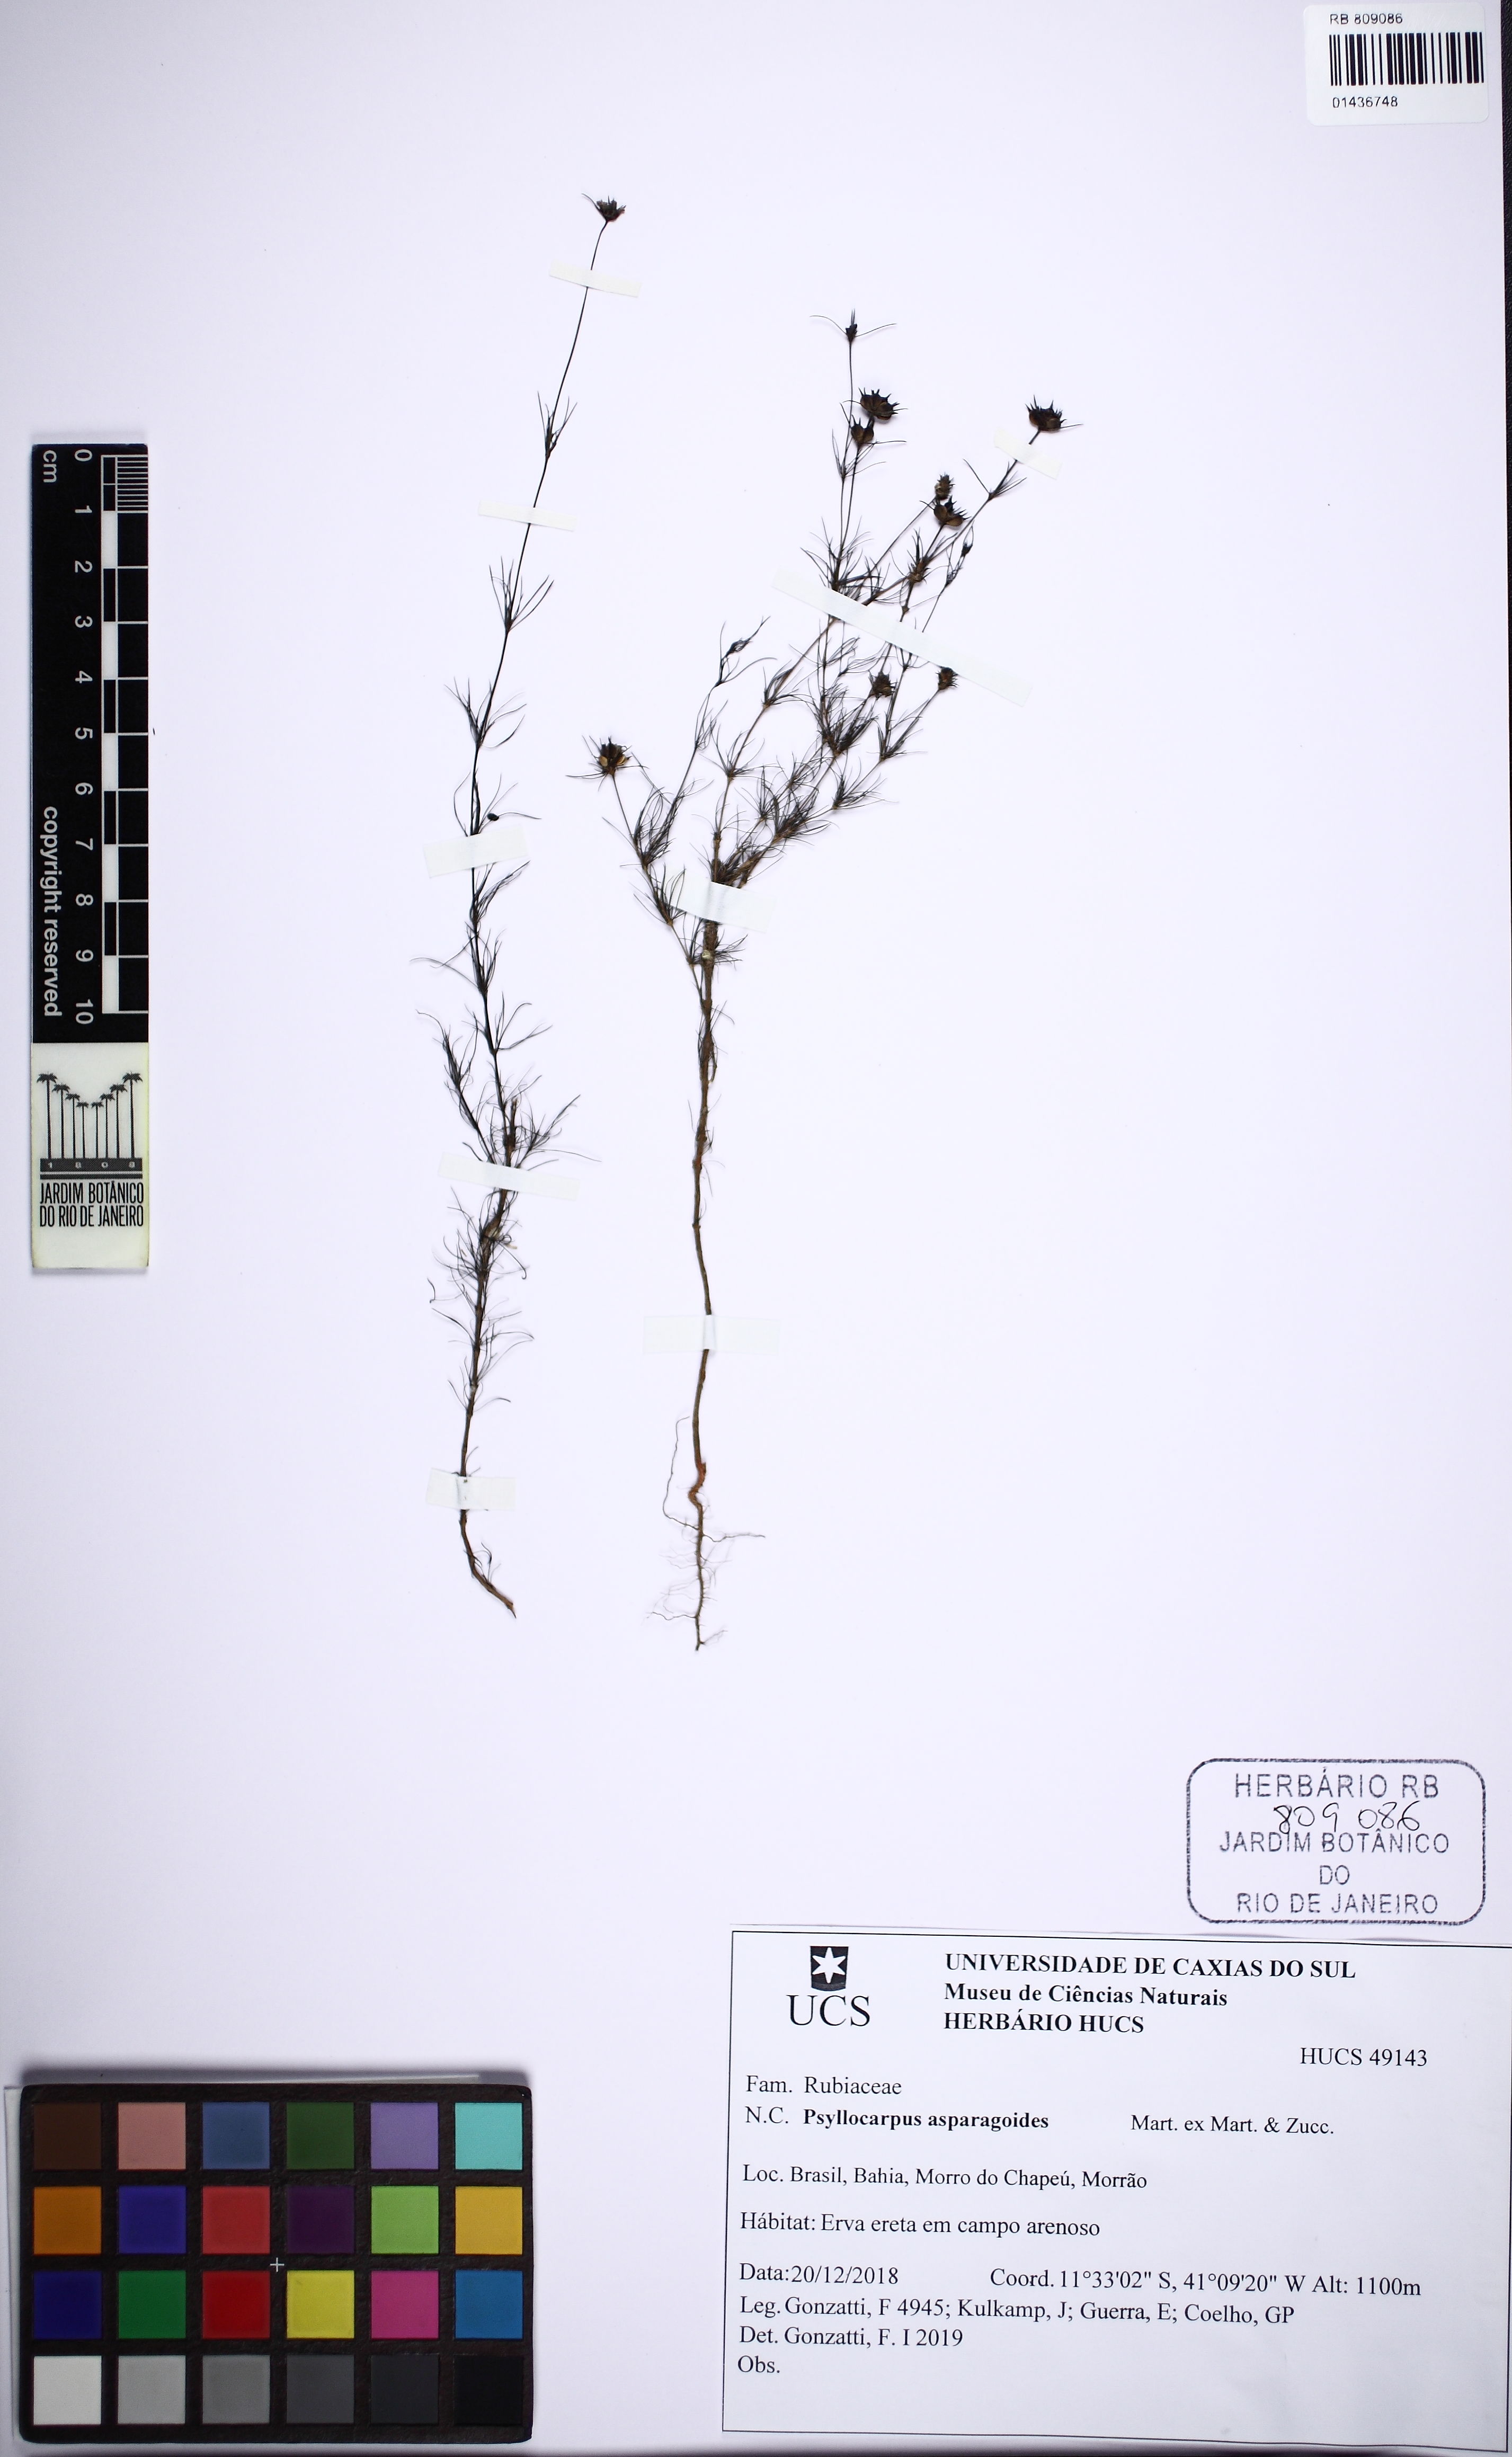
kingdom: Plantae
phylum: Tracheophyta
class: Magnoliopsida
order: Gentianales
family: Rubiaceae
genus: Psyllocarpus
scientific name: Psyllocarpus asparagoides
